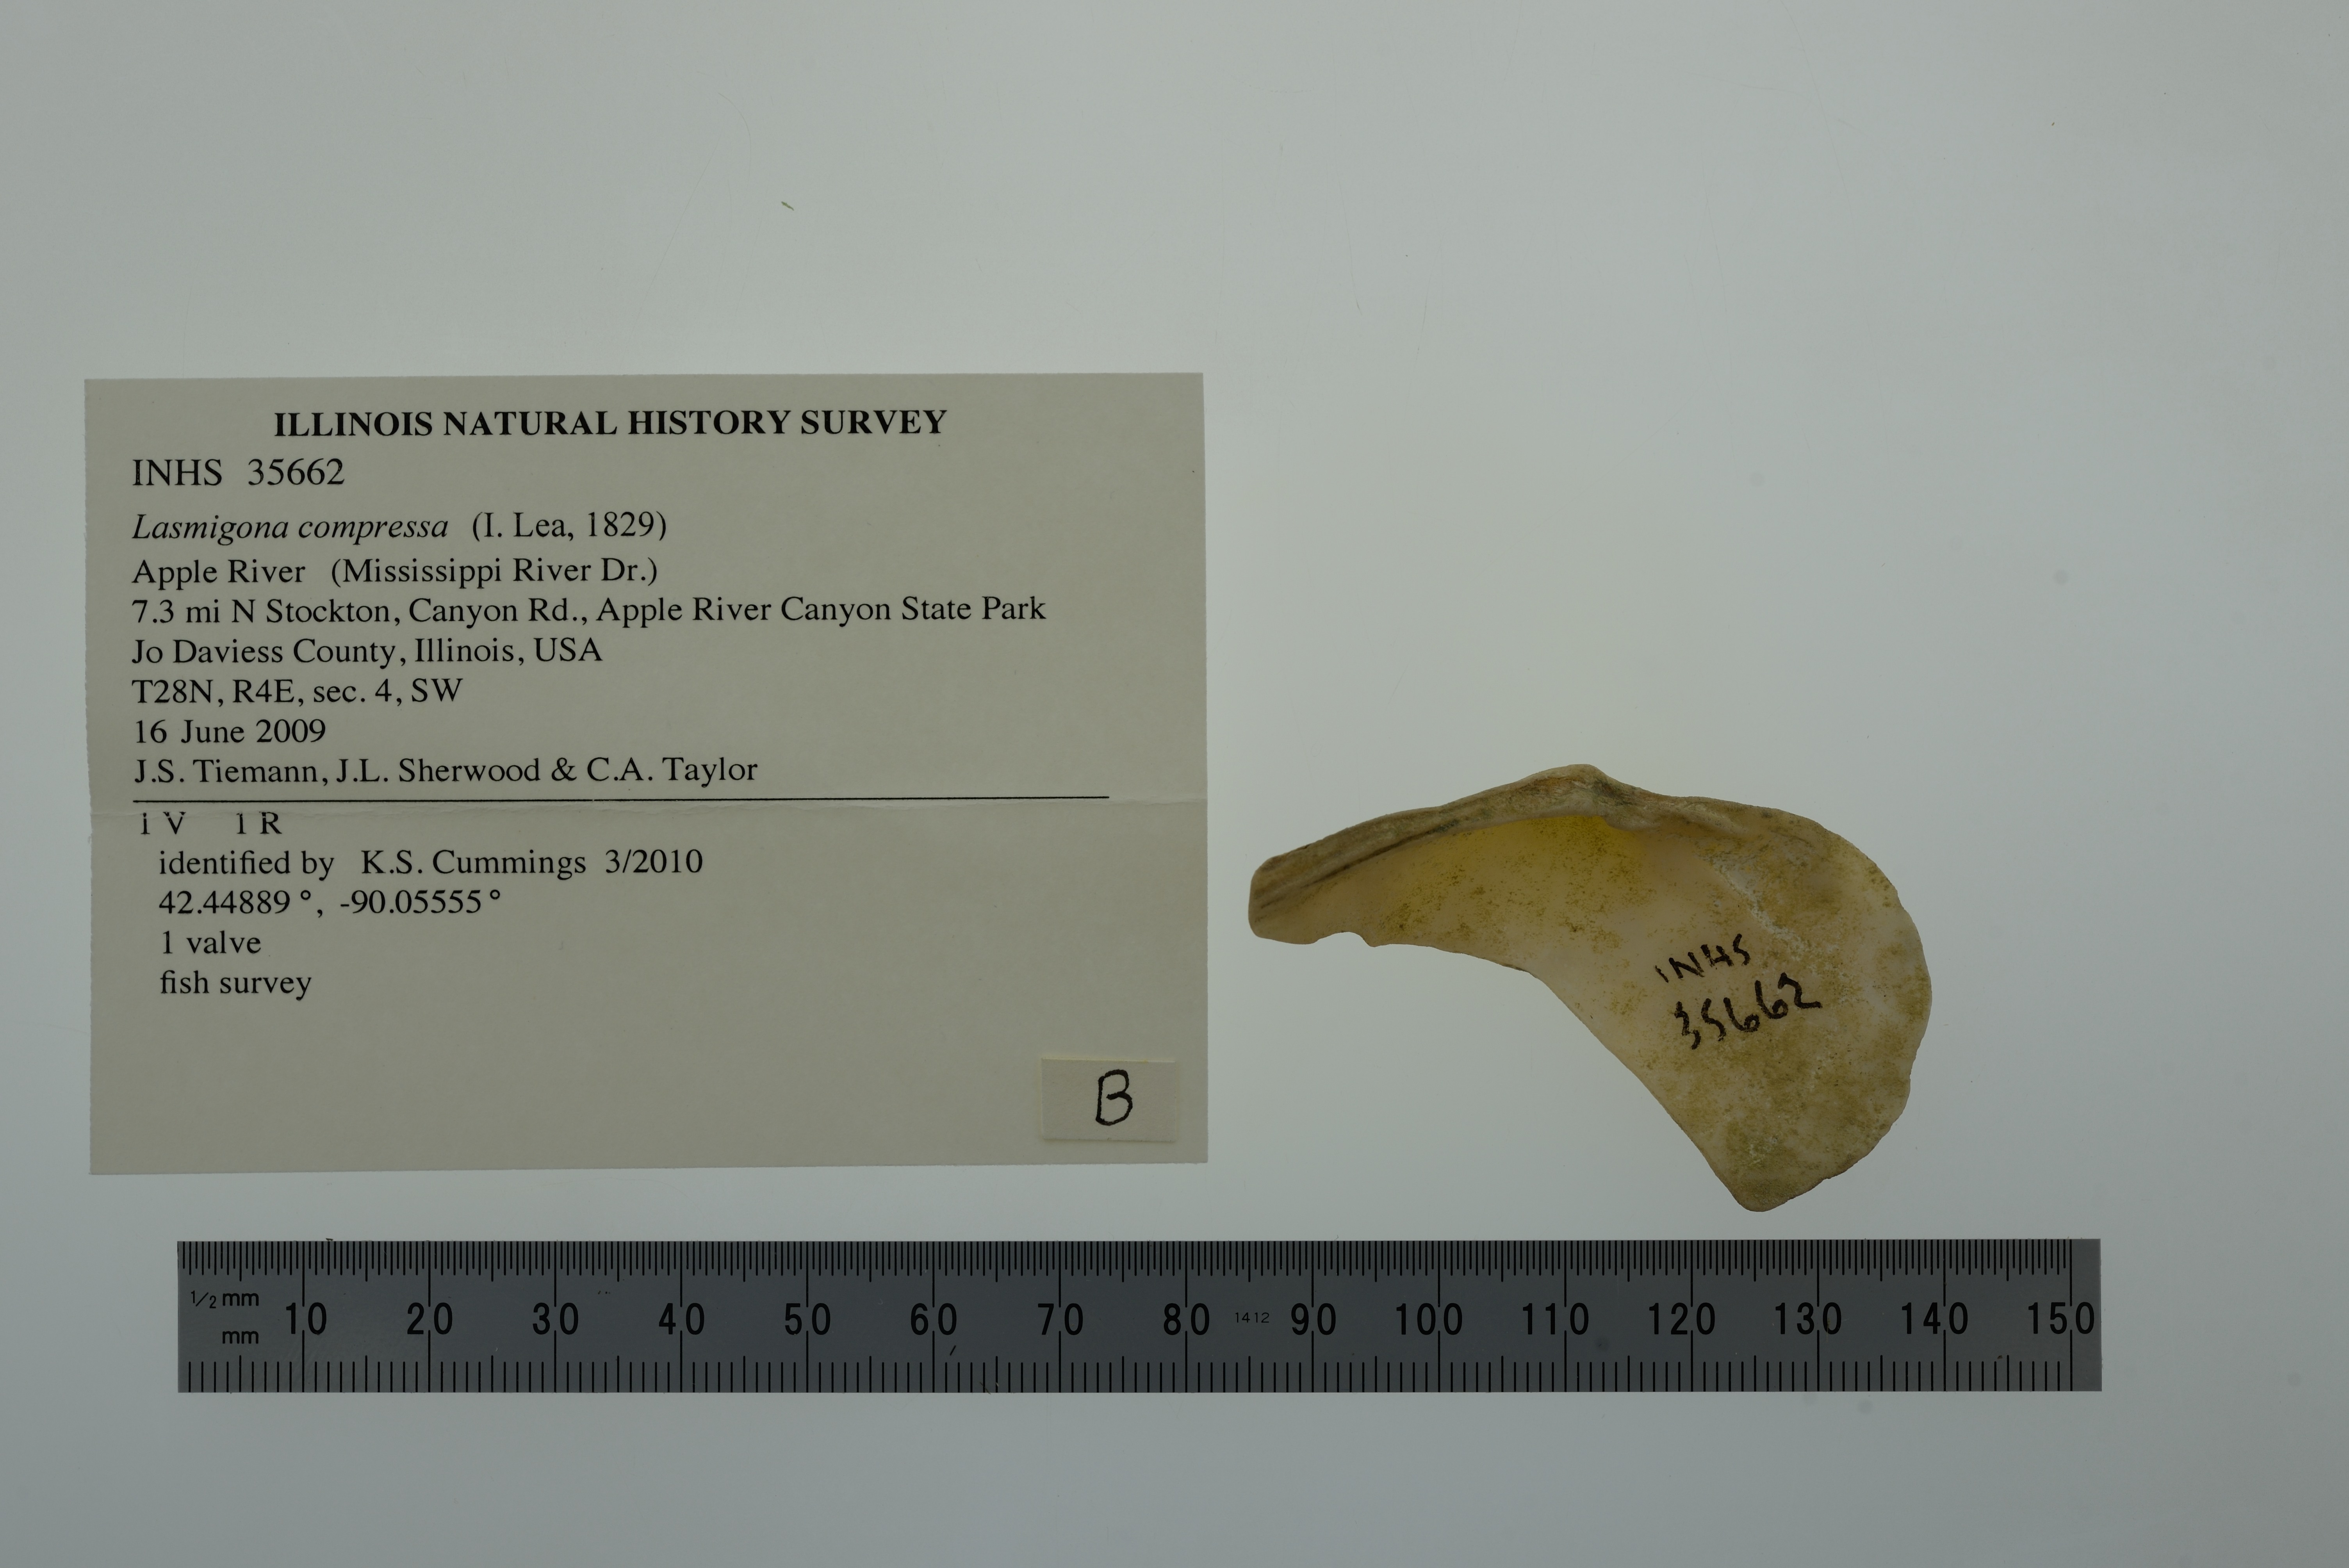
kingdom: Animalia
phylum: Mollusca
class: Bivalvia
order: Unionida
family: Unionidae
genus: Lasmigona
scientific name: Lasmigona compressa
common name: Creek heelsplitter
